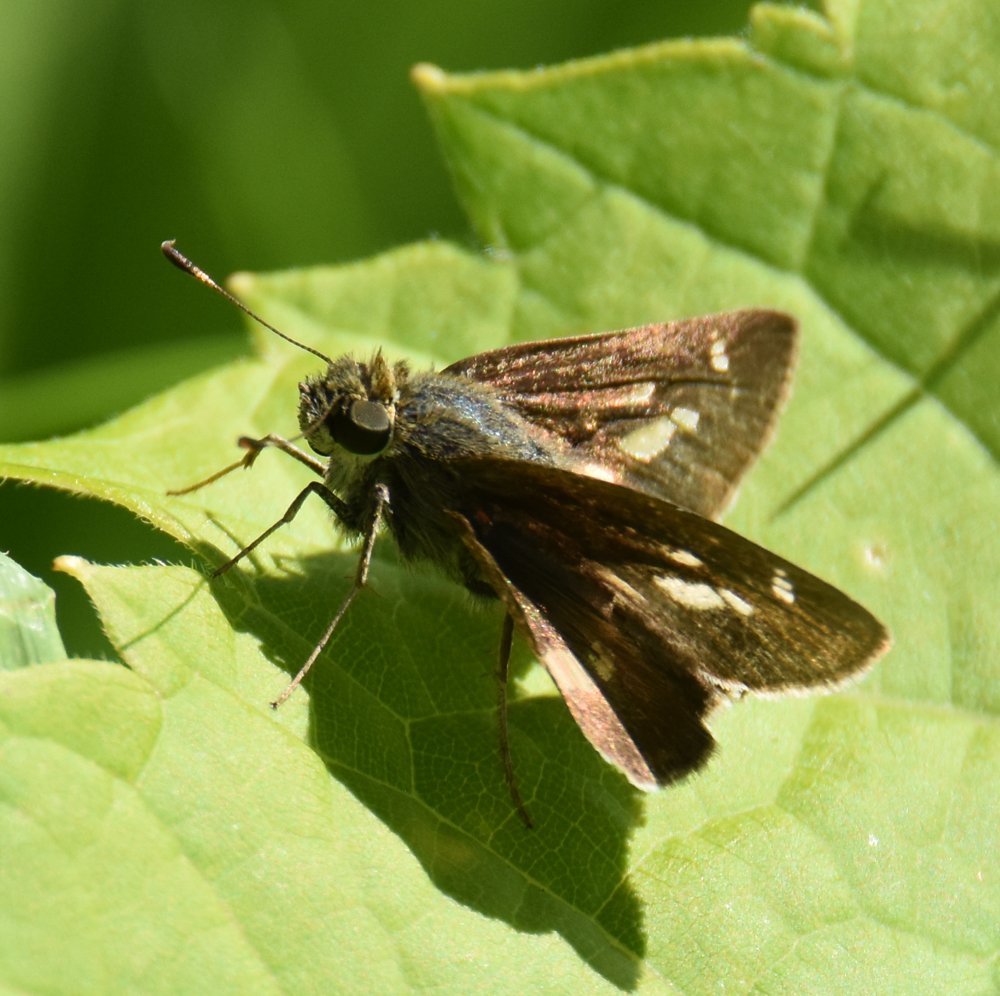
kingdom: Animalia
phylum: Arthropoda
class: Insecta
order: Lepidoptera
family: Hesperiidae
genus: Vernia
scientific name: Vernia verna
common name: Little Glassywing
